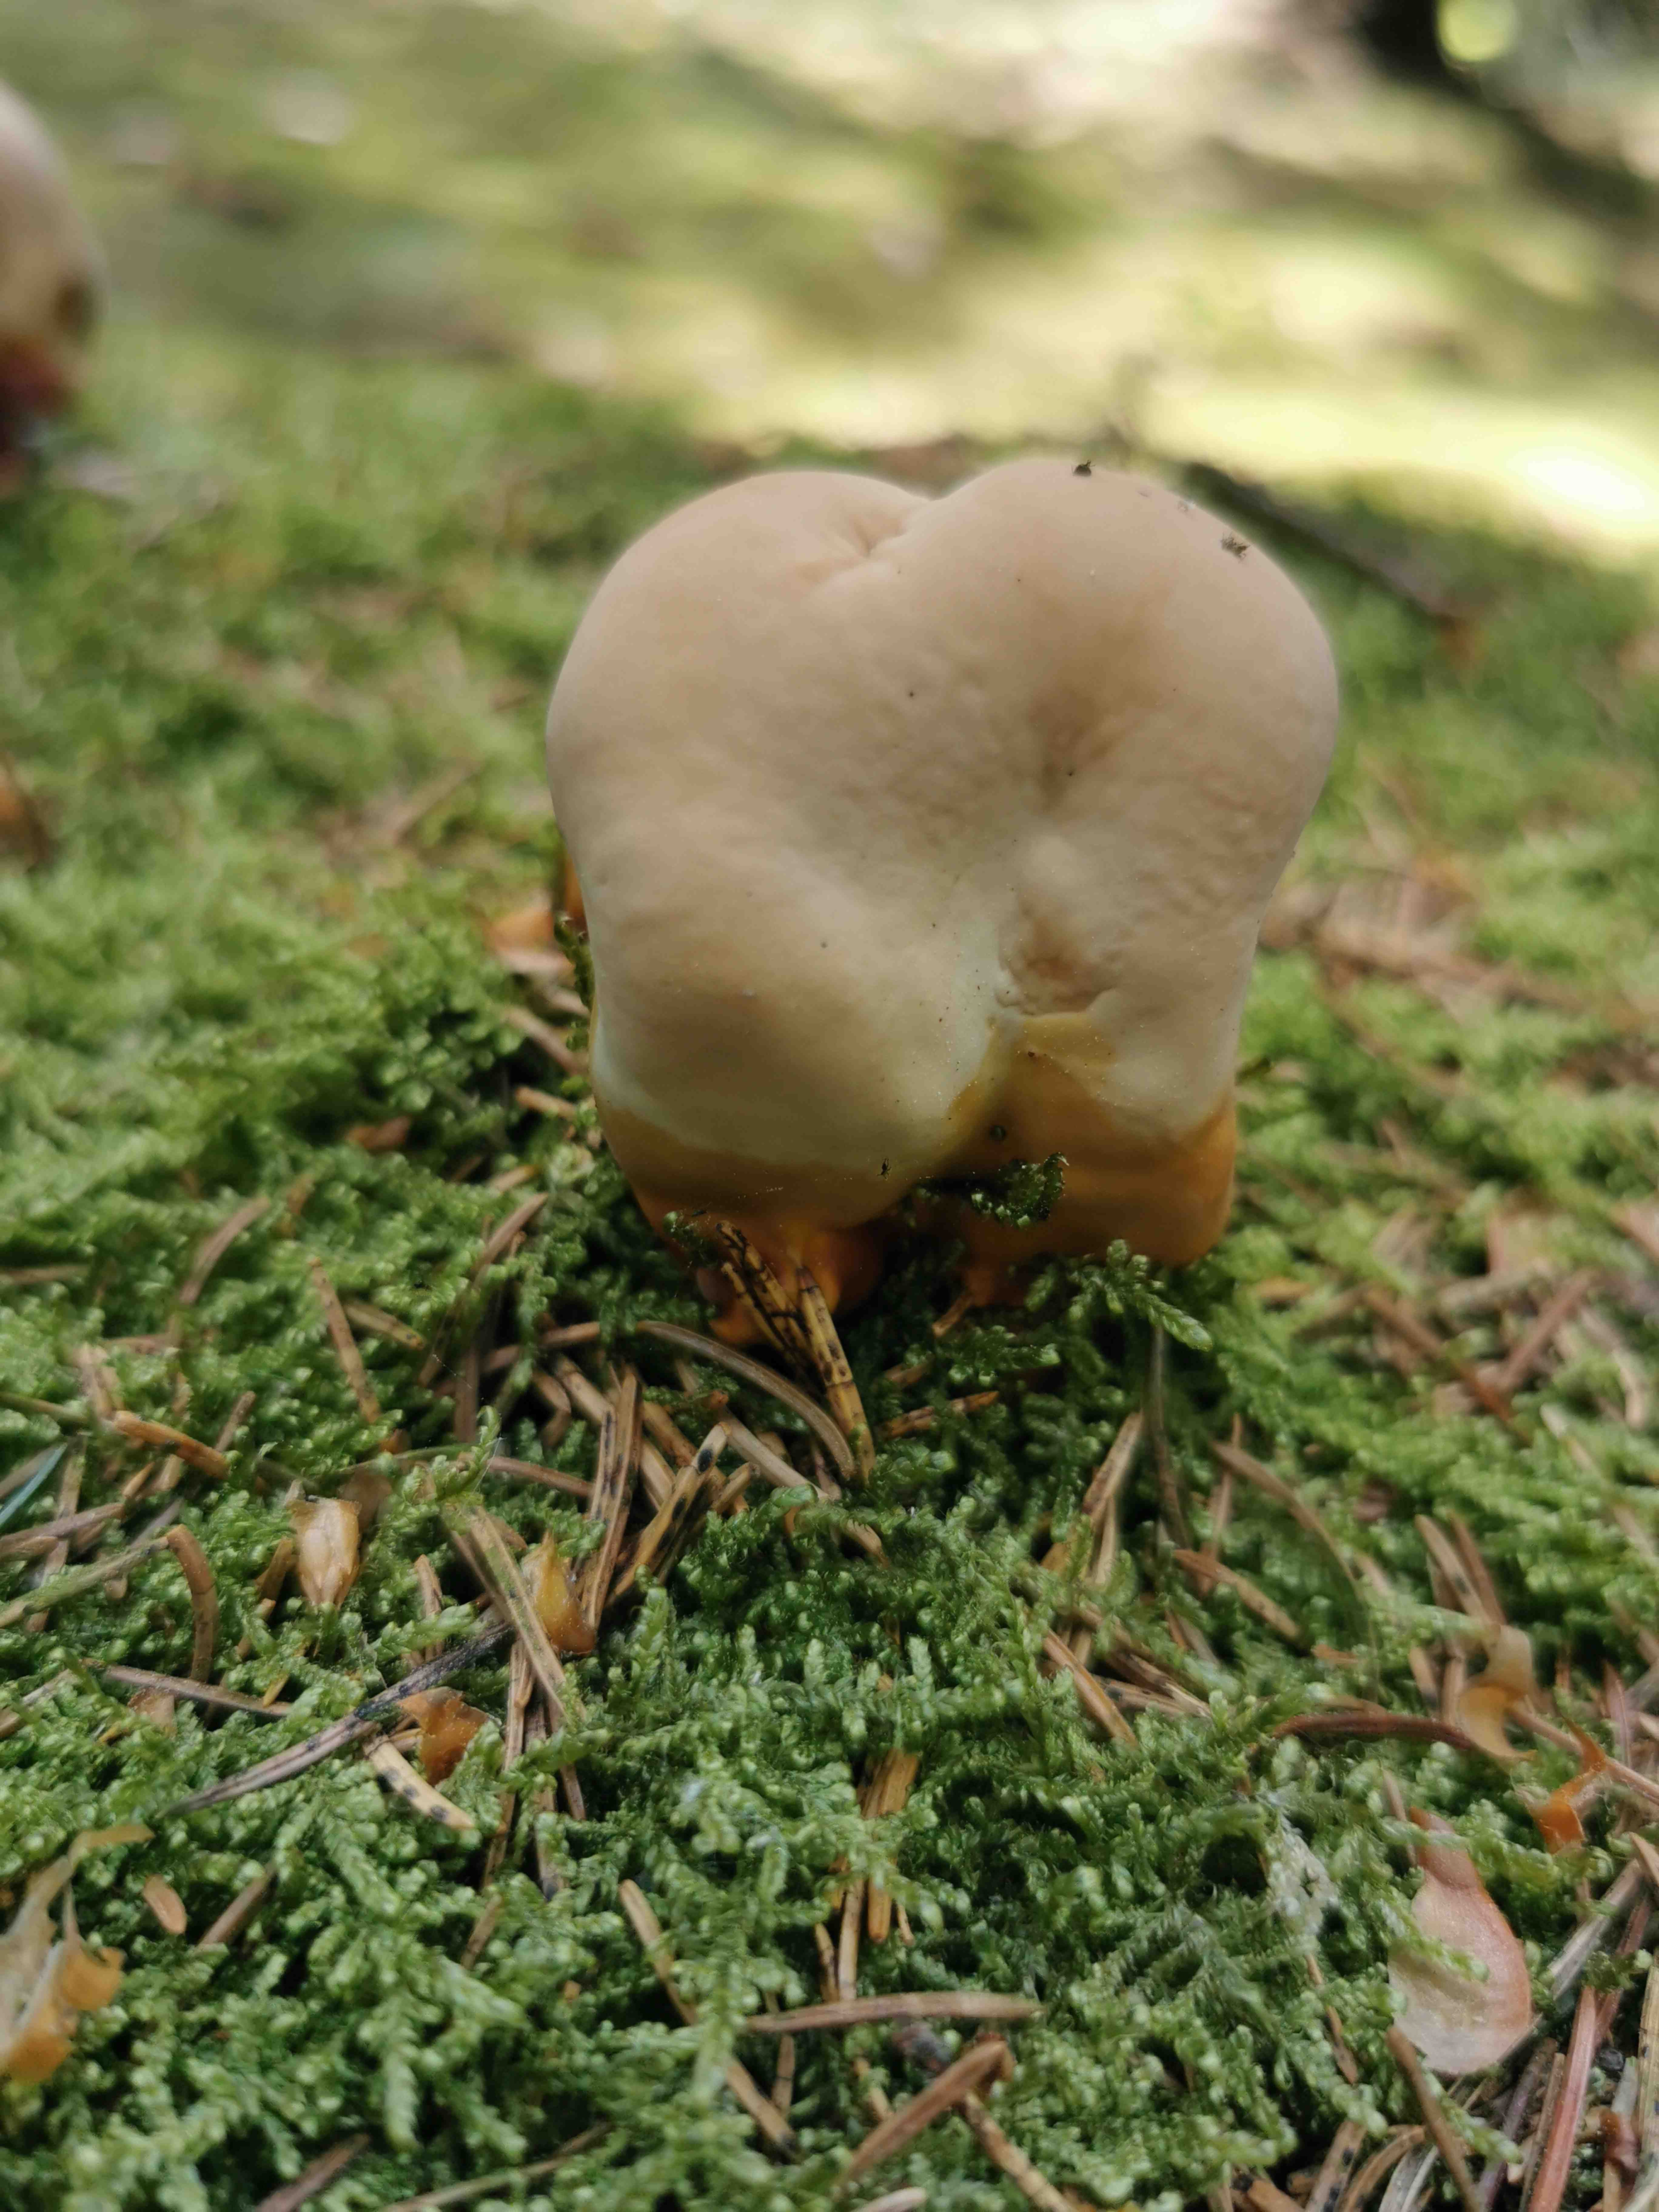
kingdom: Fungi
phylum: Basidiomycota
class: Agaricomycetes
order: Polyporales
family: Polyporaceae
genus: Ganoderma
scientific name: Ganoderma lucidum
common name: skinnende lakporesvamp
